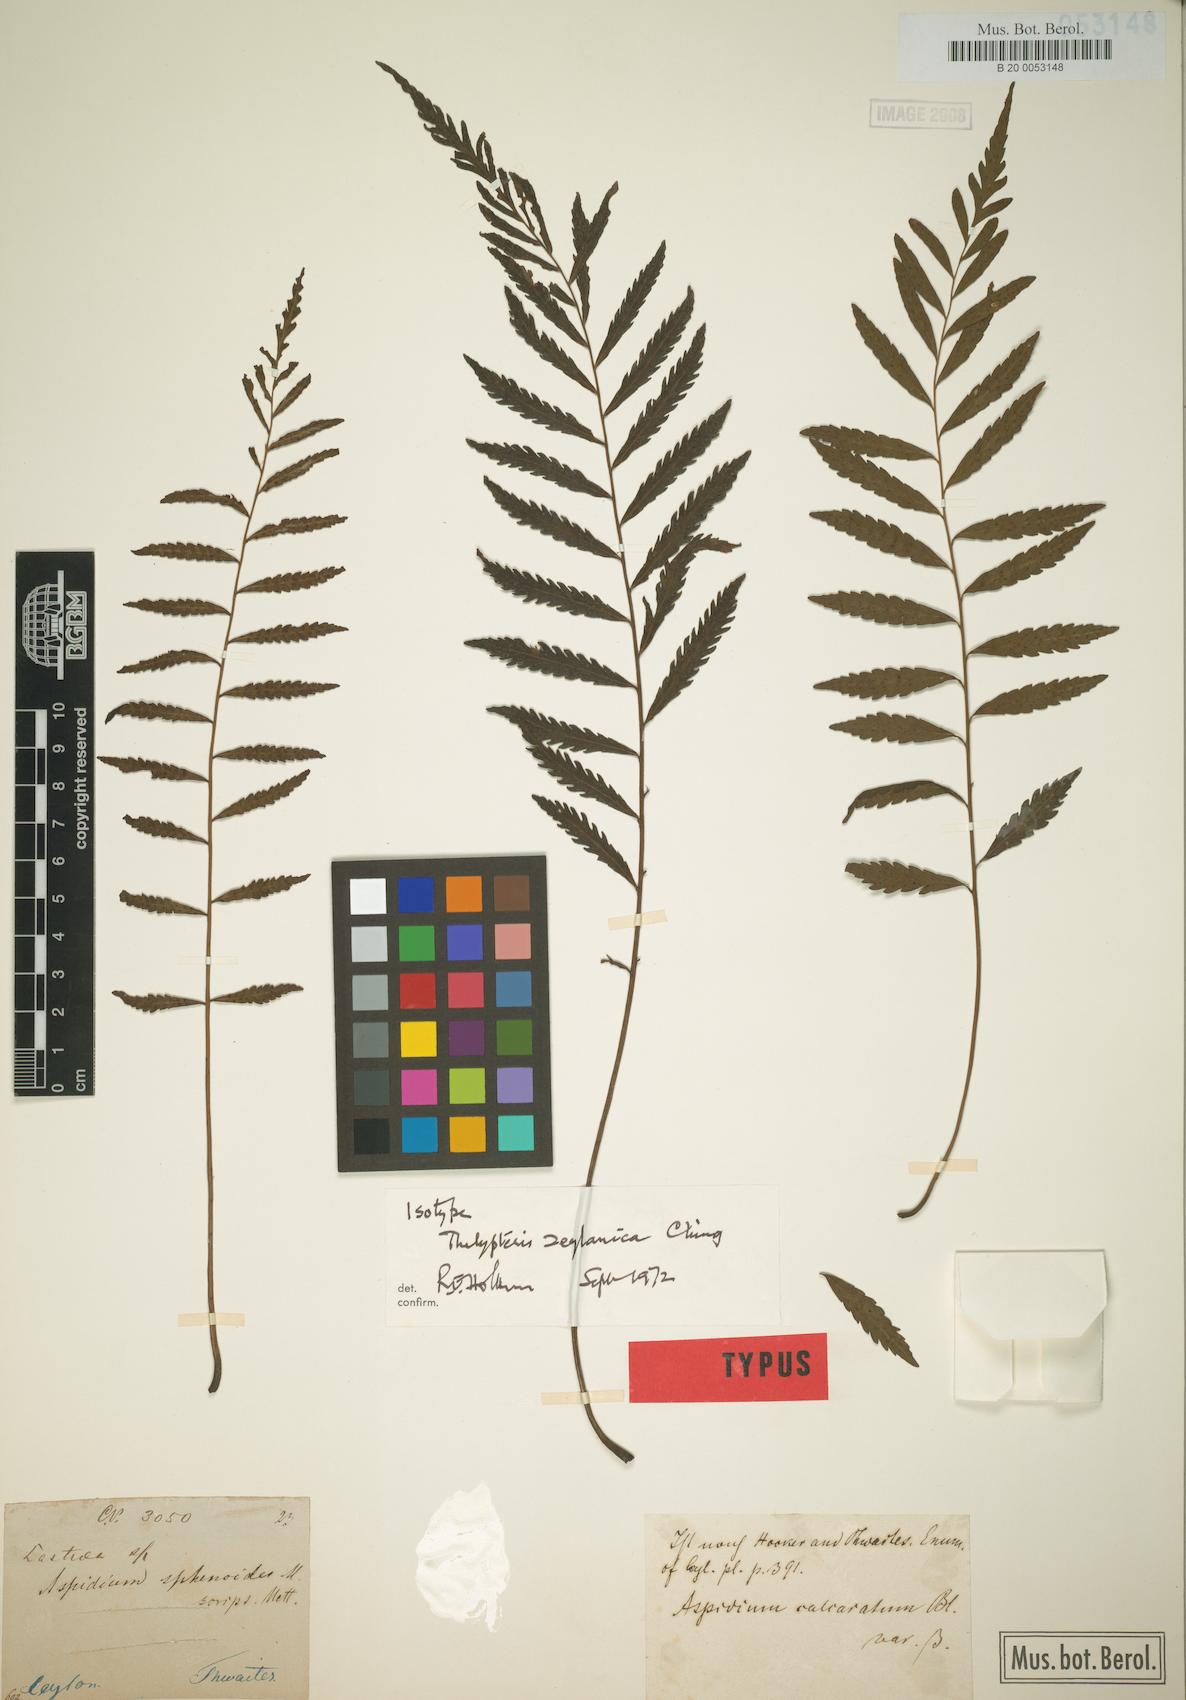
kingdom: Plantae
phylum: Tracheophyta
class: Polypodiopsida
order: Polypodiales
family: Thelypteridaceae
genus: Trigonospora
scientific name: Trigonospora zeylanica
